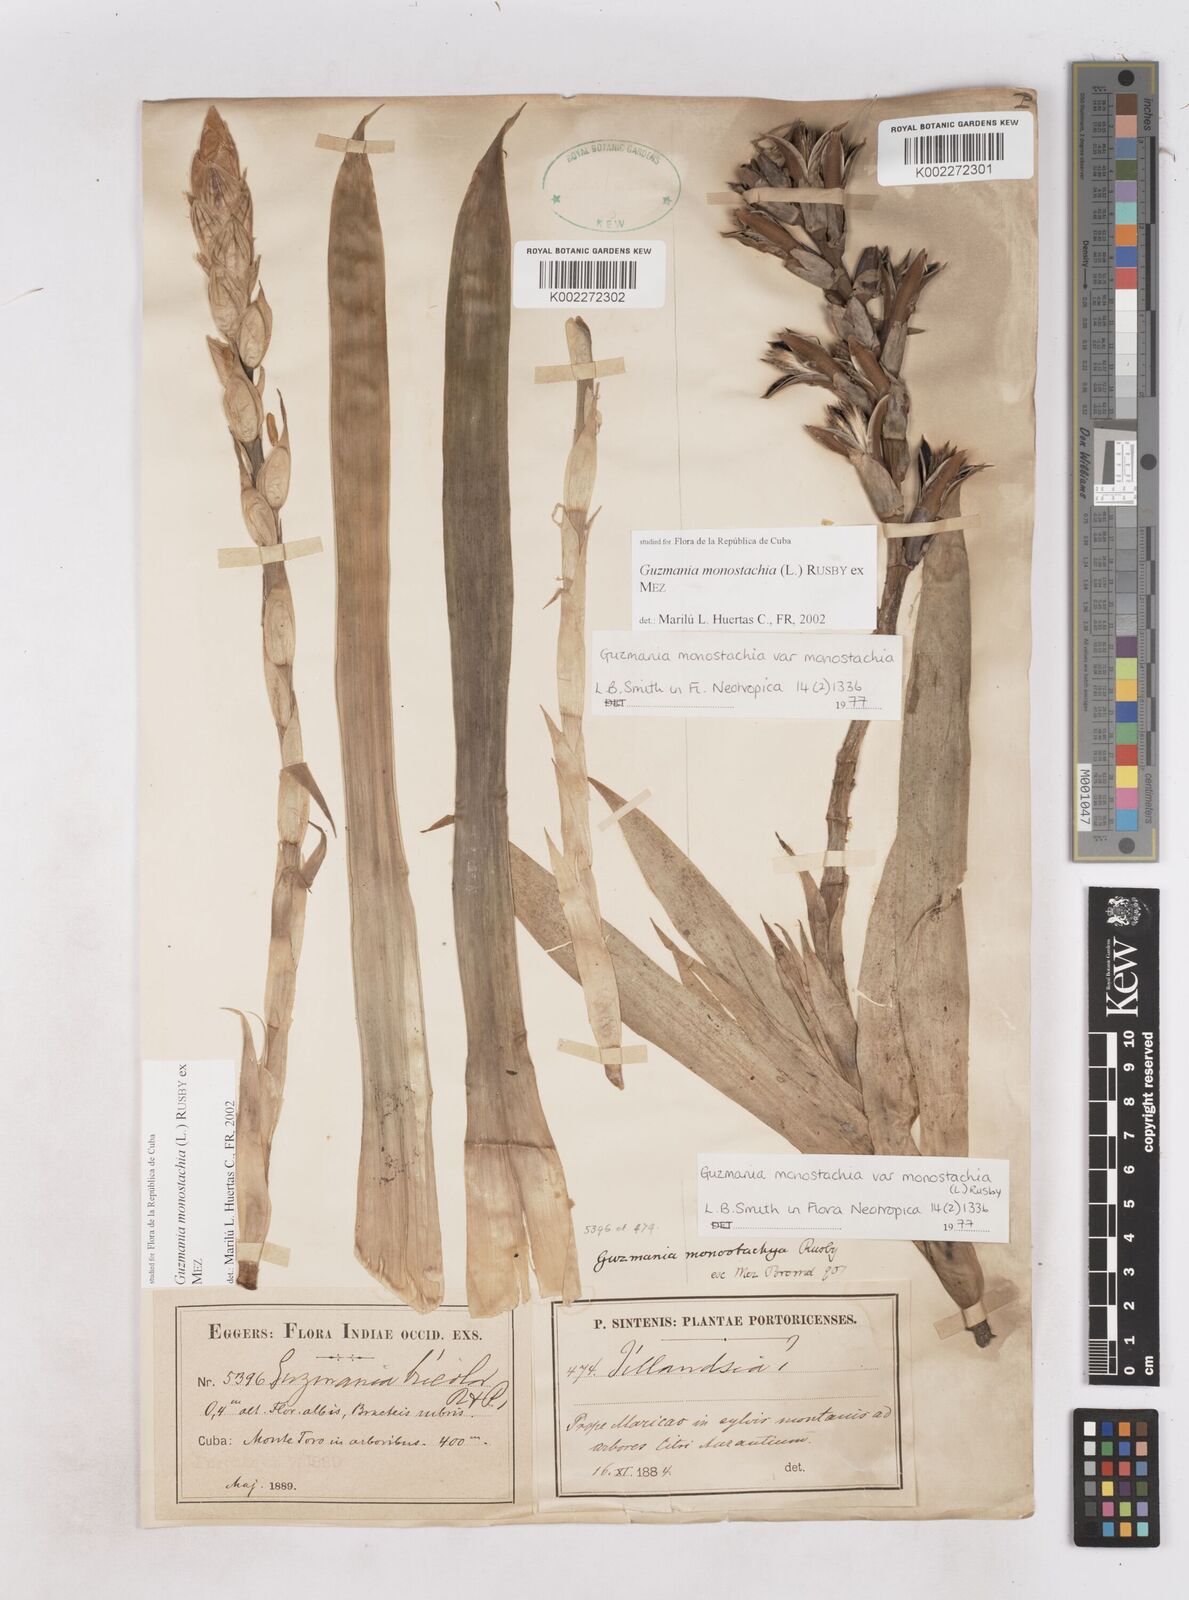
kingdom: Plantae
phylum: Tracheophyta
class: Liliopsida
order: Poales
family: Bromeliaceae
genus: Guzmania
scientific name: Guzmania monostachia
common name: West indian tufted airplant
